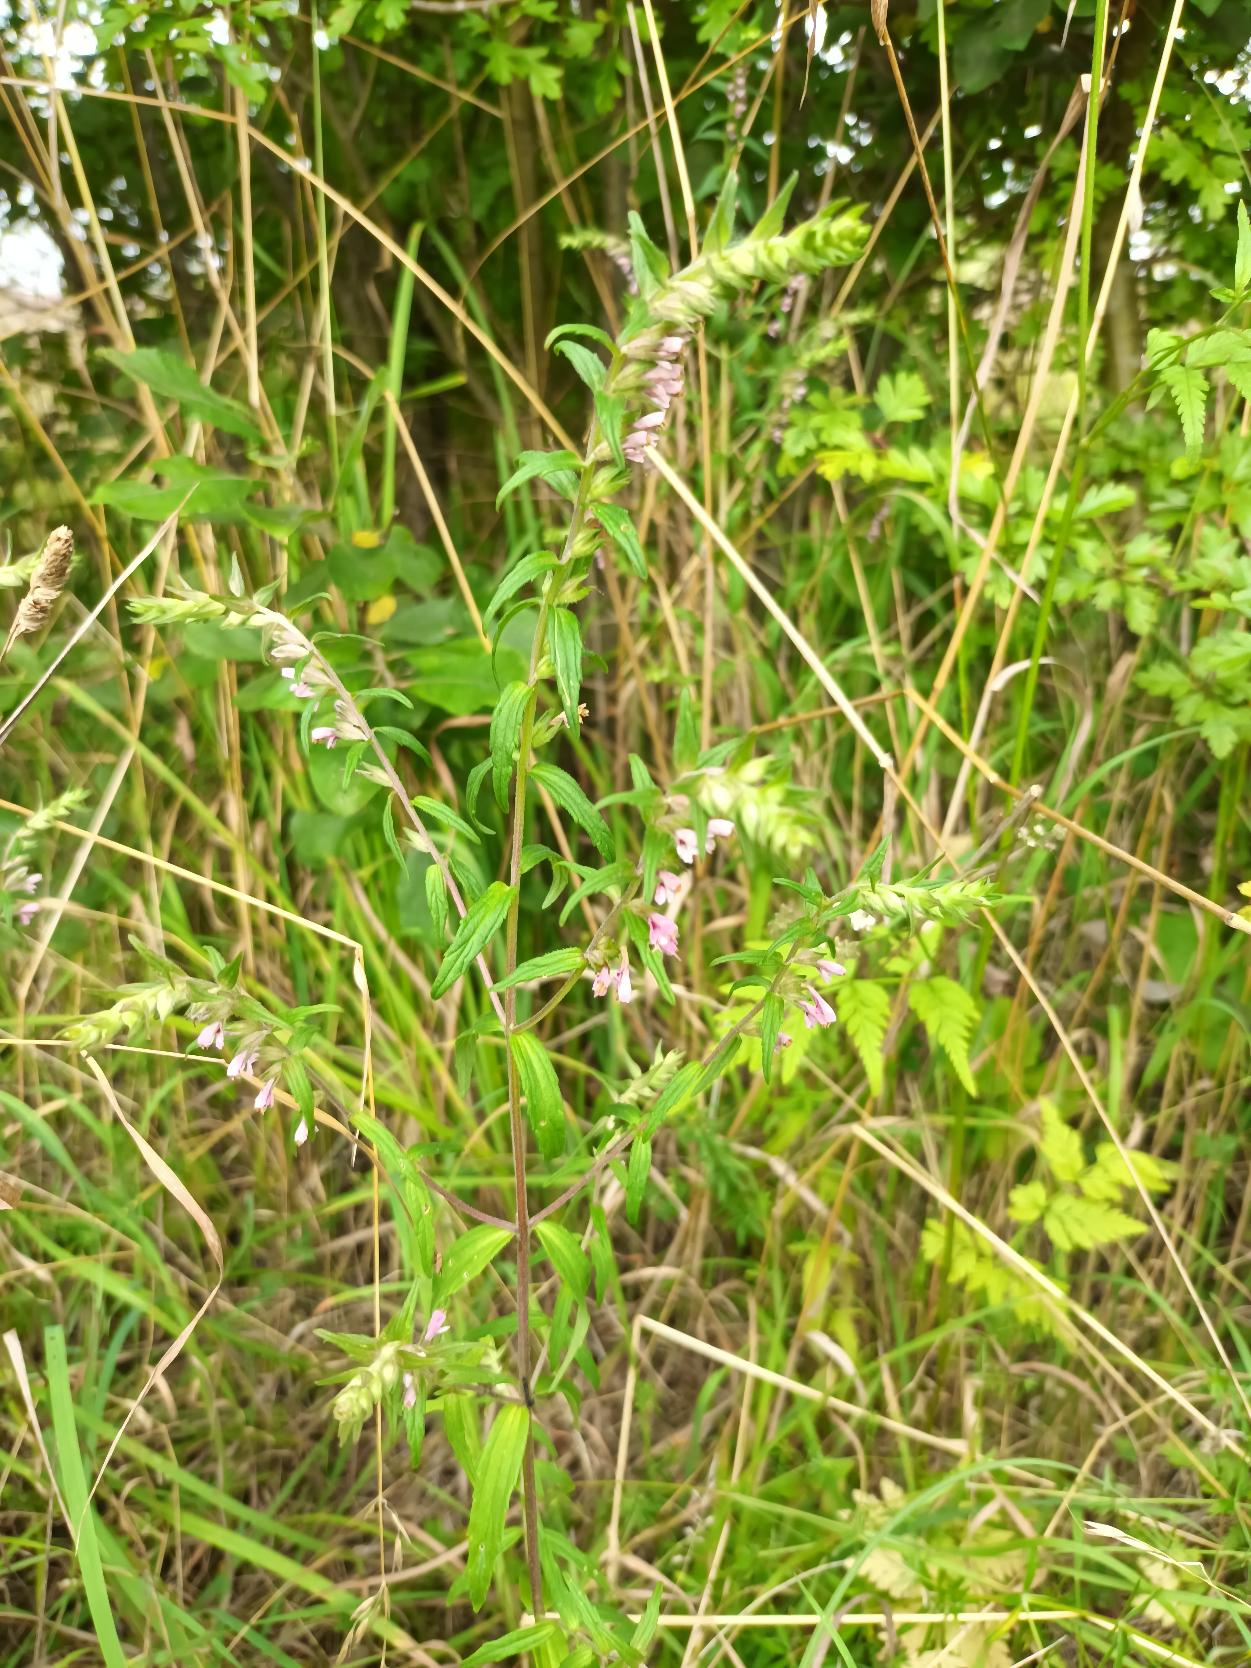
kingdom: Plantae
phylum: Tracheophyta
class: Magnoliopsida
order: Lamiales
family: Orobanchaceae
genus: Odontites
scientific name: Odontites vernus
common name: Mark-rødtop
